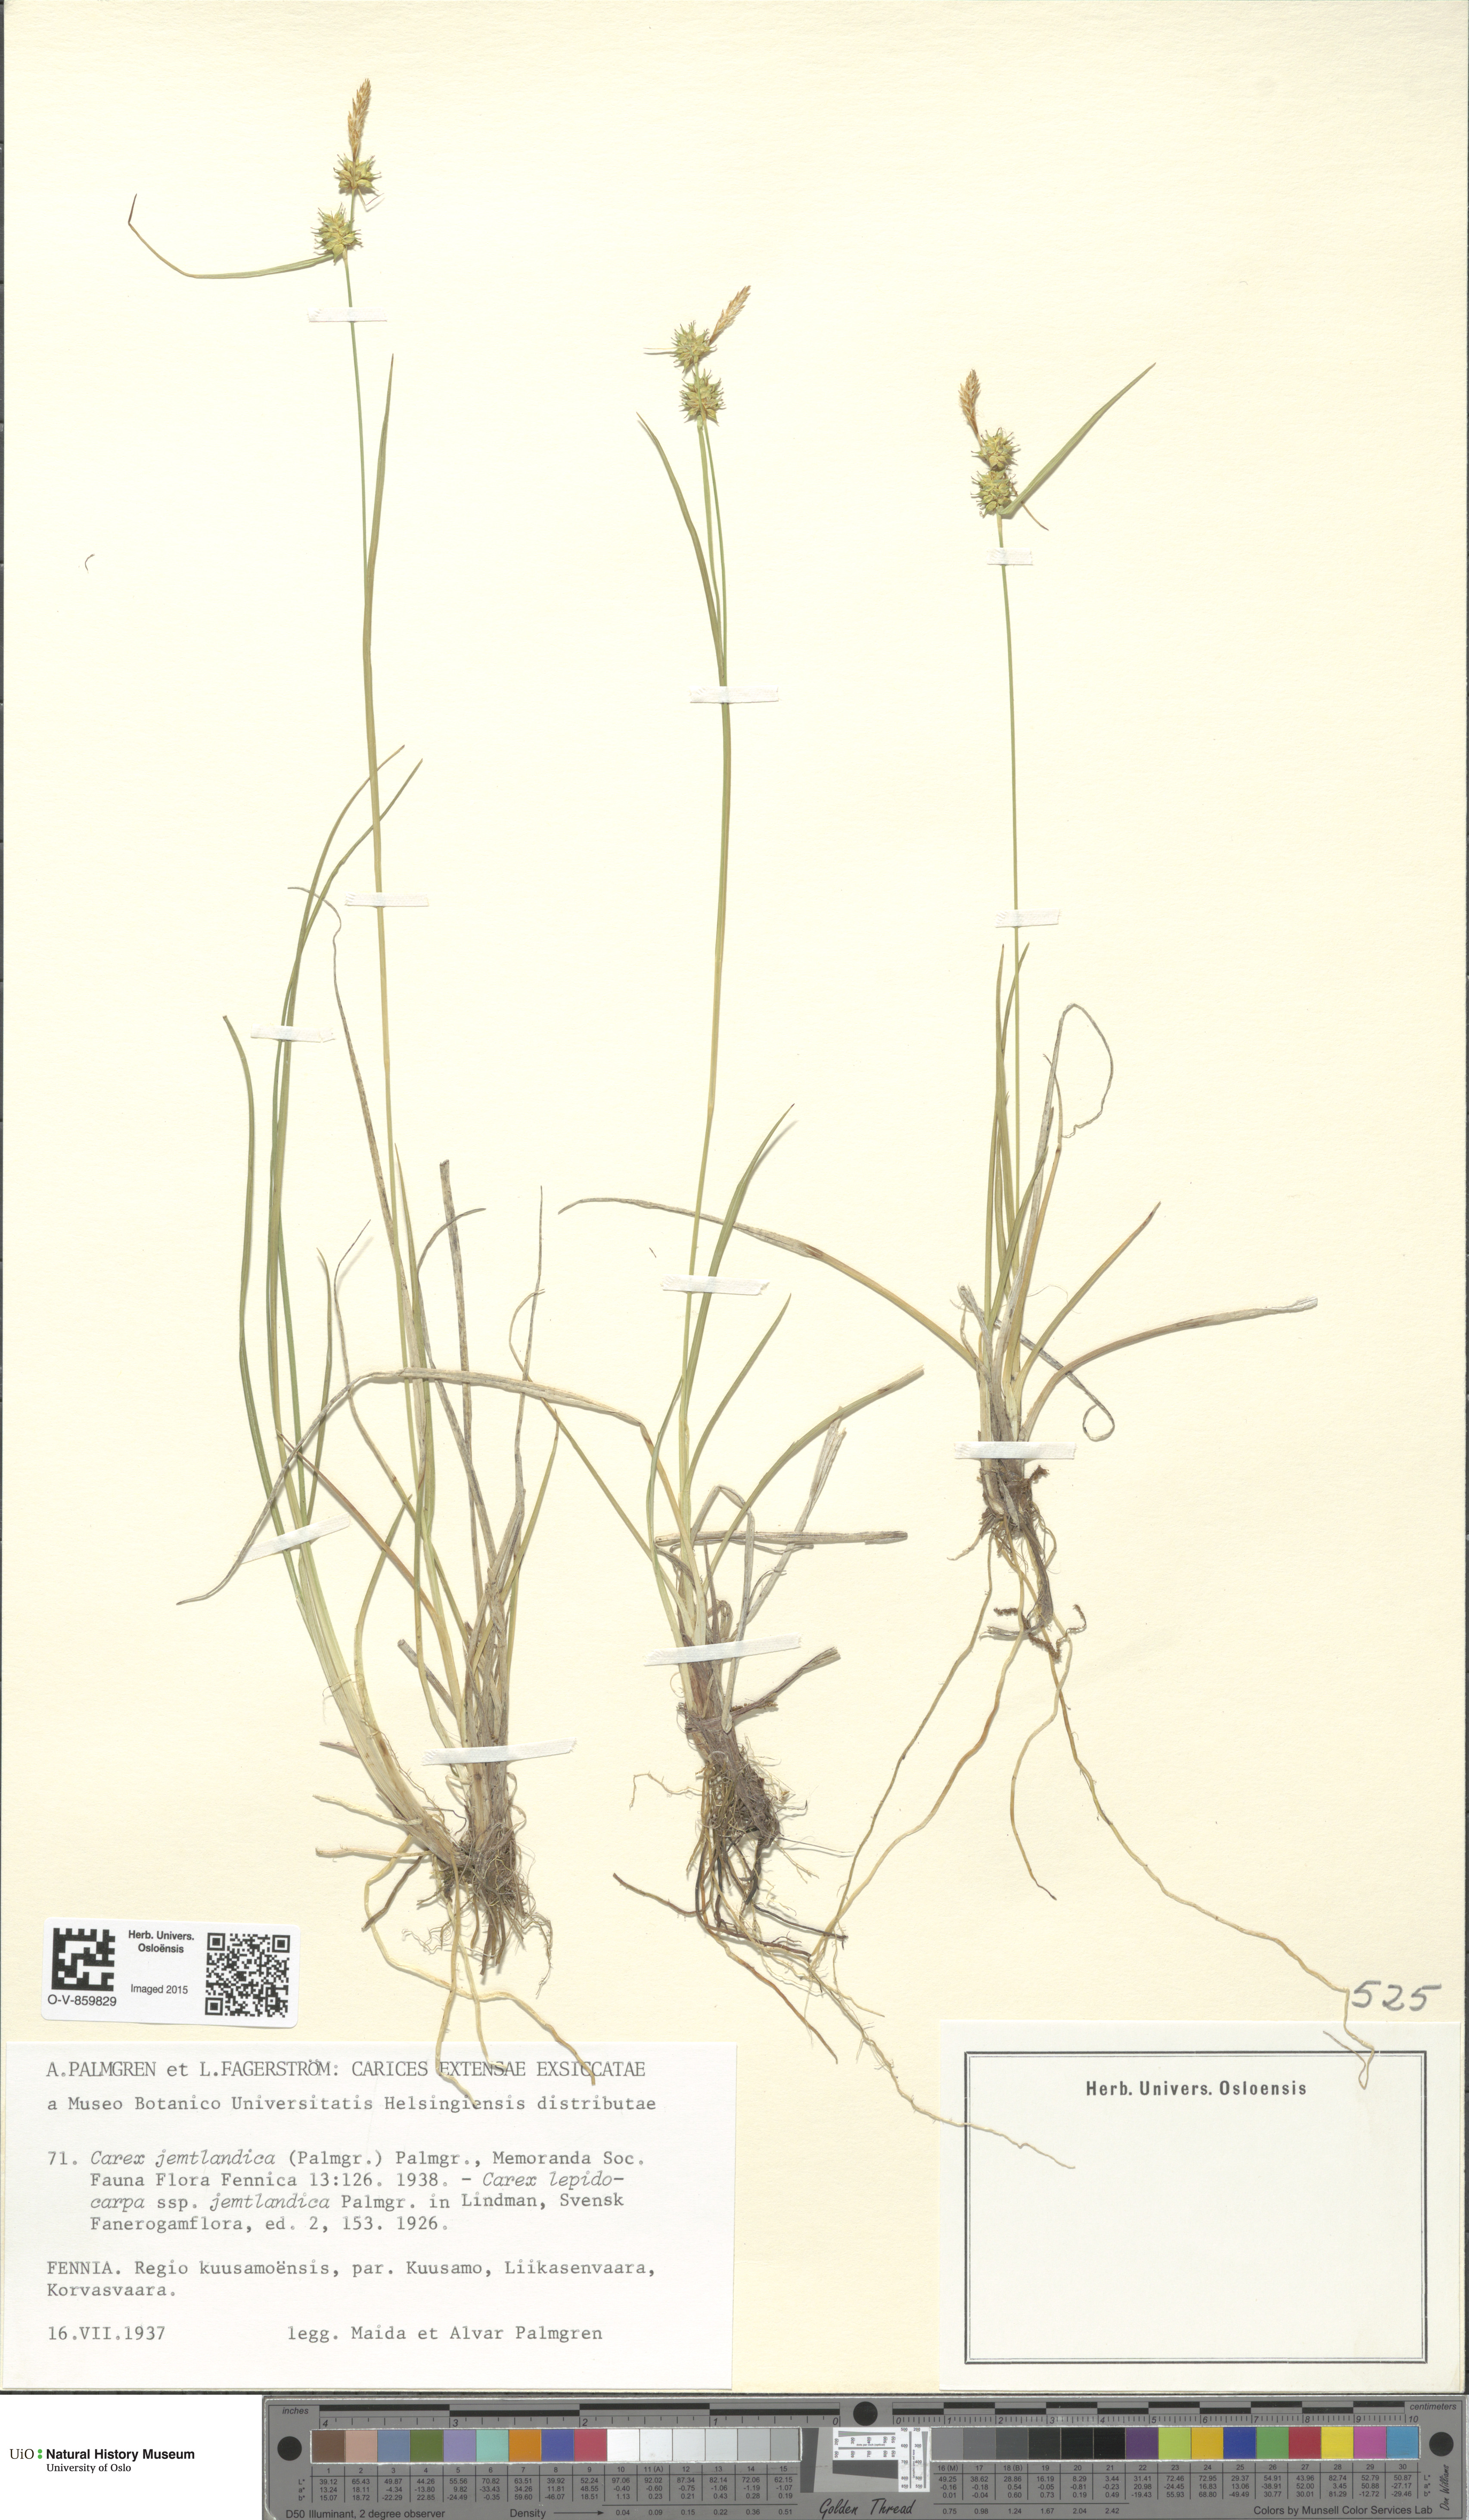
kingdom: Plantae
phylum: Tracheophyta
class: Liliopsida
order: Poales
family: Cyperaceae
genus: Carex
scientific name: Carex lepidocarpa
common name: Long-stalked yellow-sedge
